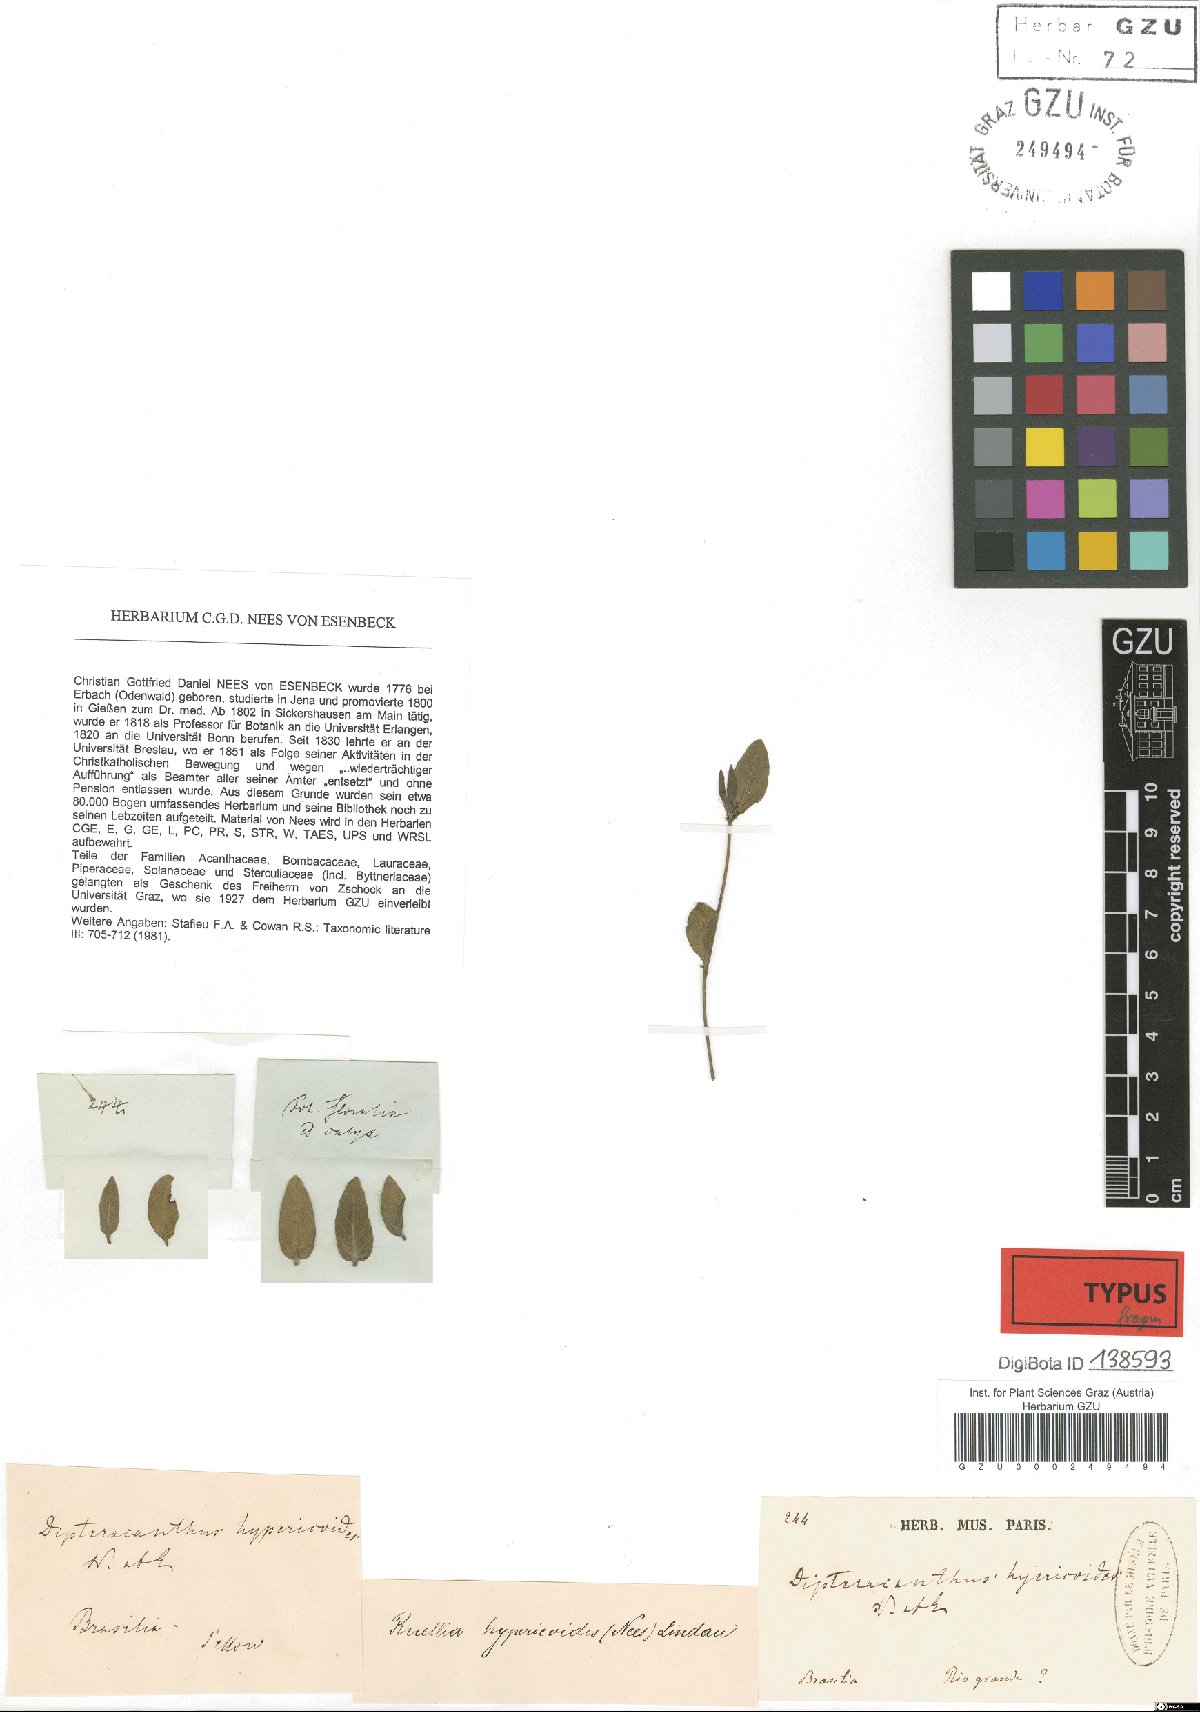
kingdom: Plantae
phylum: Tracheophyta
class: Magnoliopsida
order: Lamiales
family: Acanthaceae
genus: Ruellia
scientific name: Ruellia hypericoides
